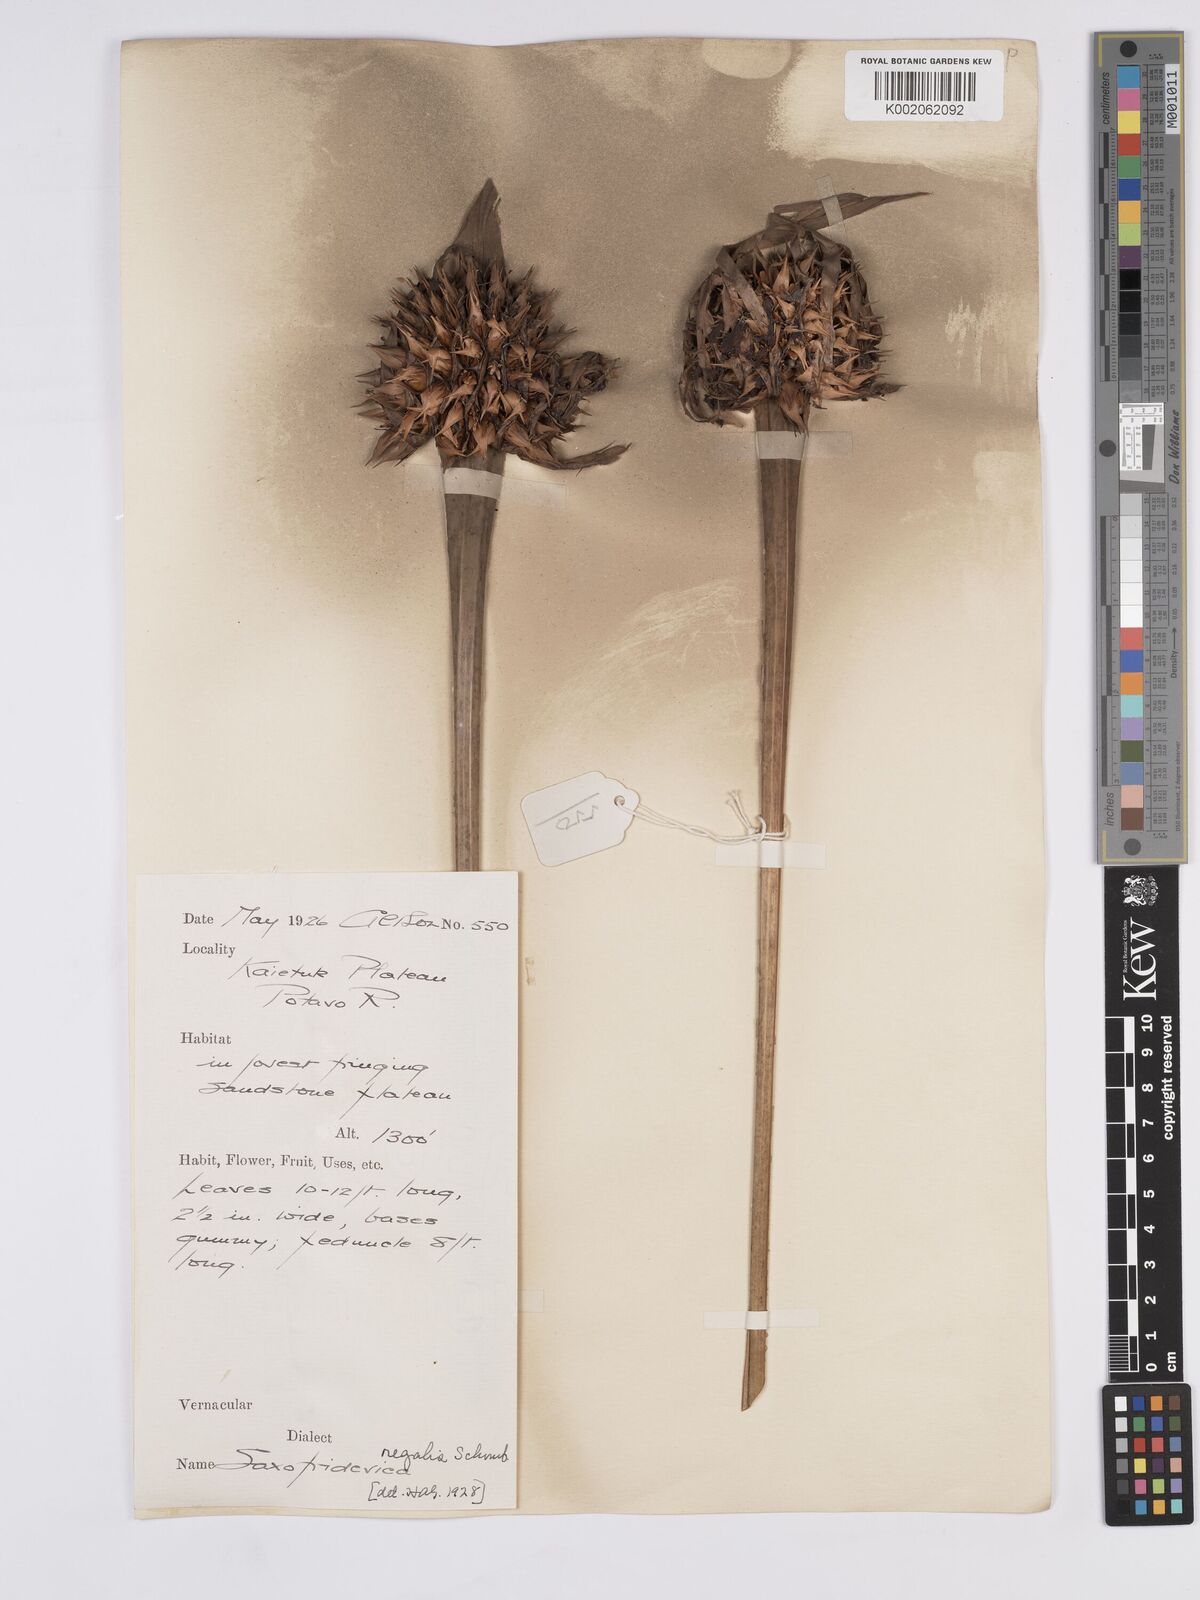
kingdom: Plantae
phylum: Tracheophyta
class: Liliopsida
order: Poales
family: Rapateaceae
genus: Saxofridericia
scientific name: Saxofridericia regalis
